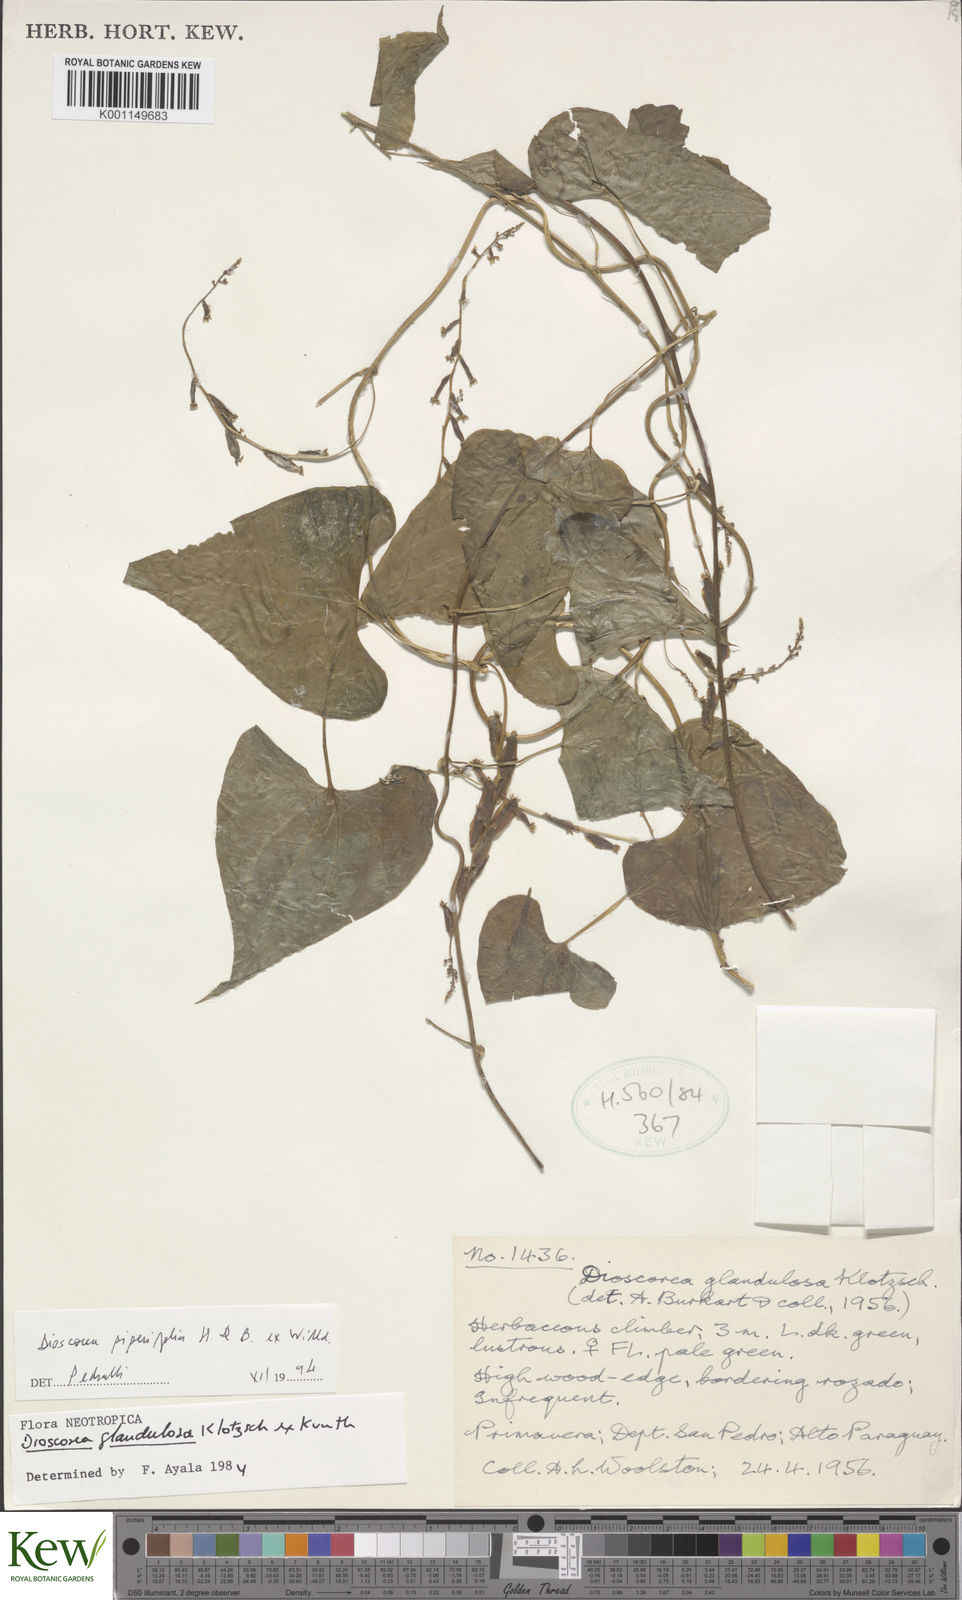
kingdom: Plantae
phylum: Tracheophyta
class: Liliopsida
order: Dioscoreales
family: Dioscoreaceae
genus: Dioscorea
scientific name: Dioscorea glandulosa
